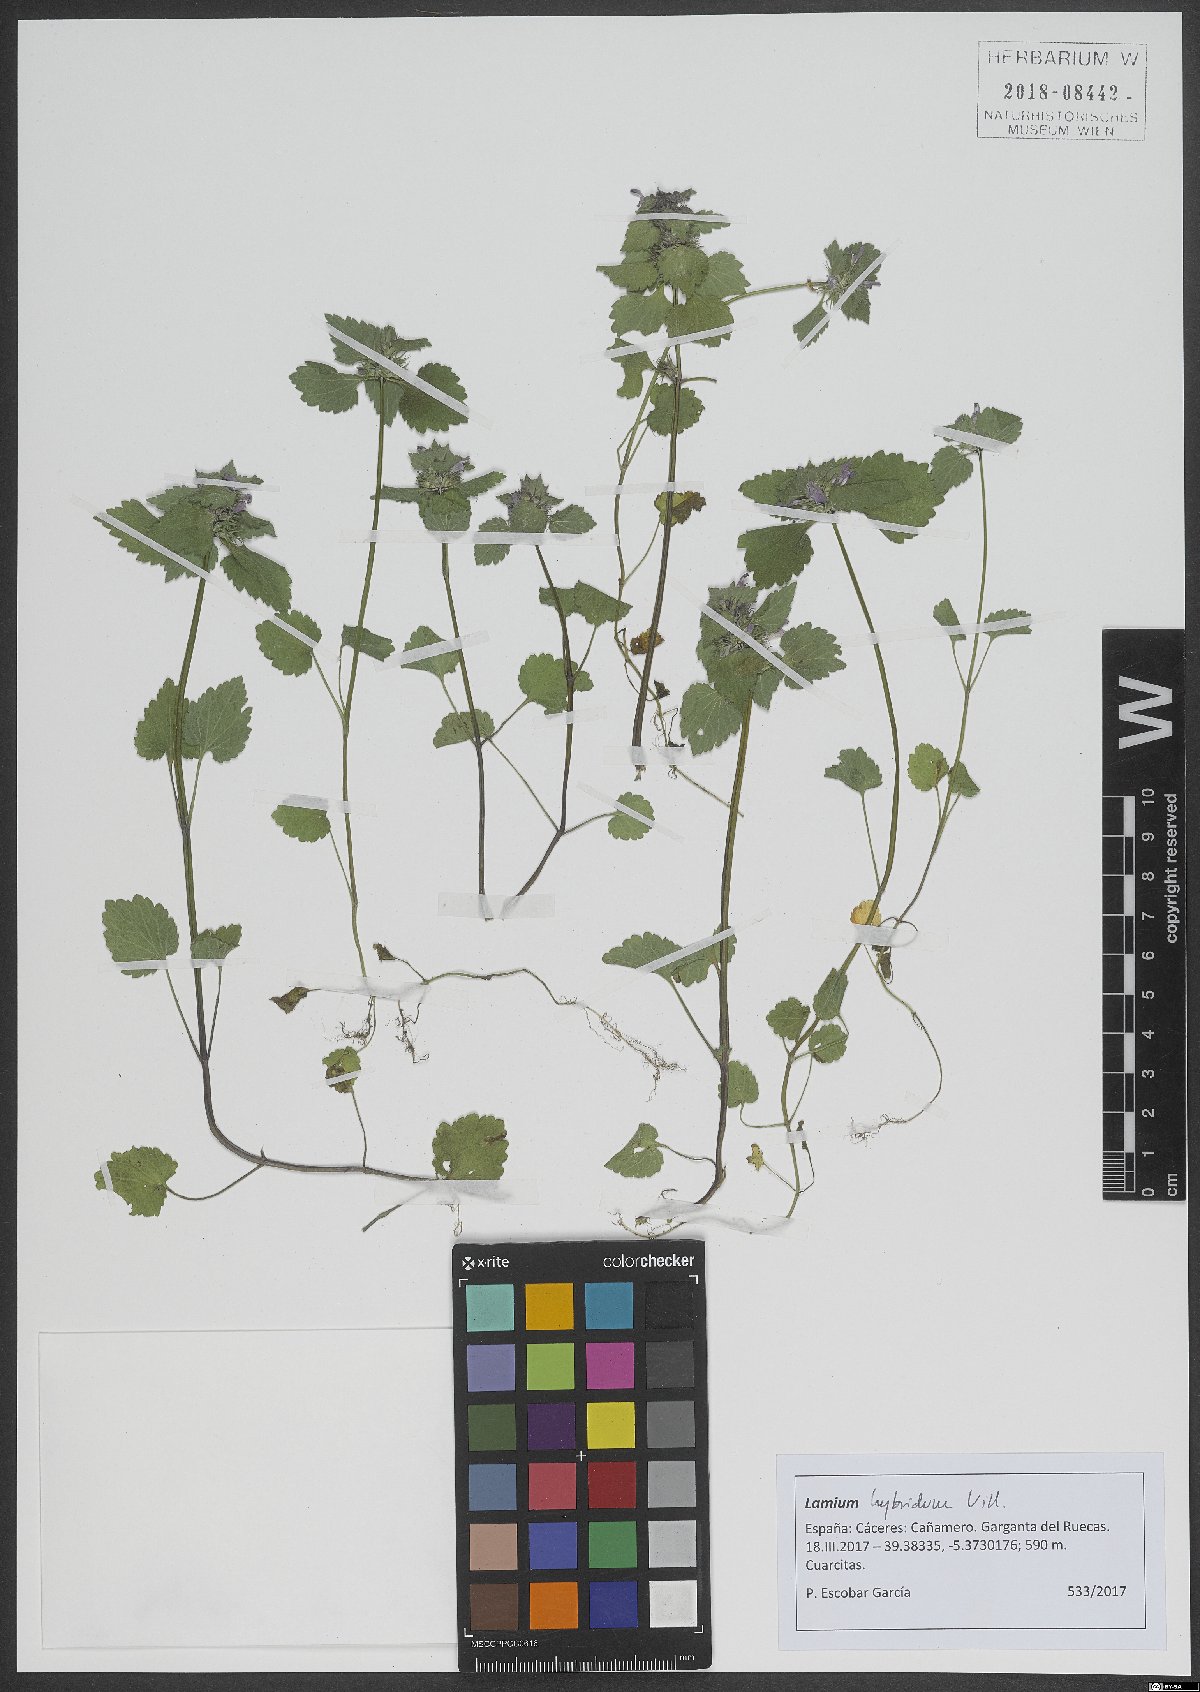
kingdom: Plantae
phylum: Tracheophyta
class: Magnoliopsida
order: Lamiales
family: Lamiaceae
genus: Lamium
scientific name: Lamium hybridum
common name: Cut-leaved dead-nettle
